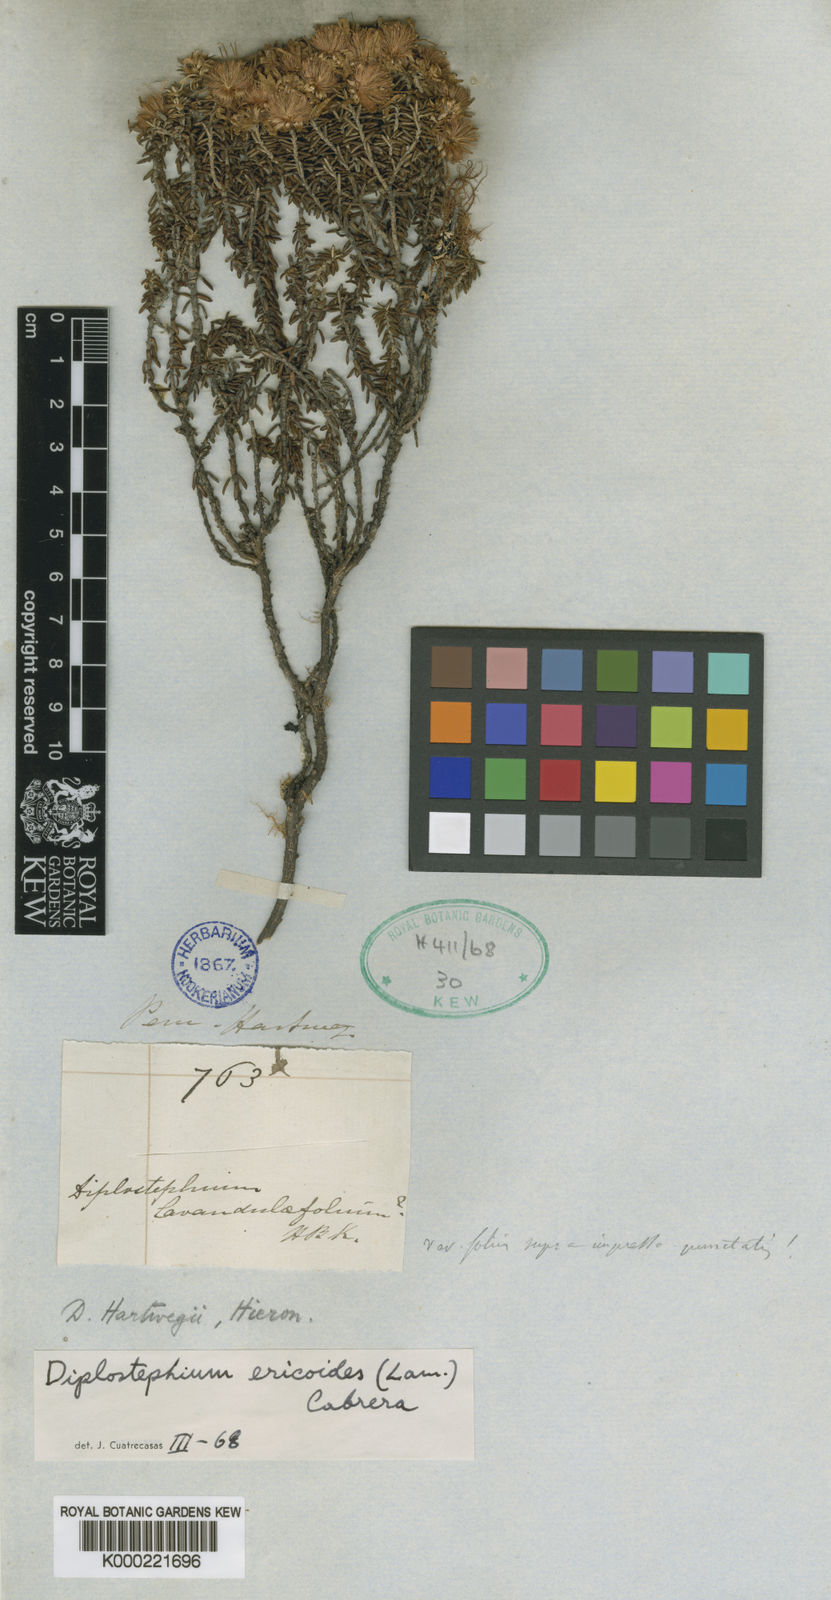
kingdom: Plantae
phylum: Tracheophyta
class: Magnoliopsida
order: Asterales
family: Asteraceae
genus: Diplostephium
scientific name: Diplostephium hartwegii
